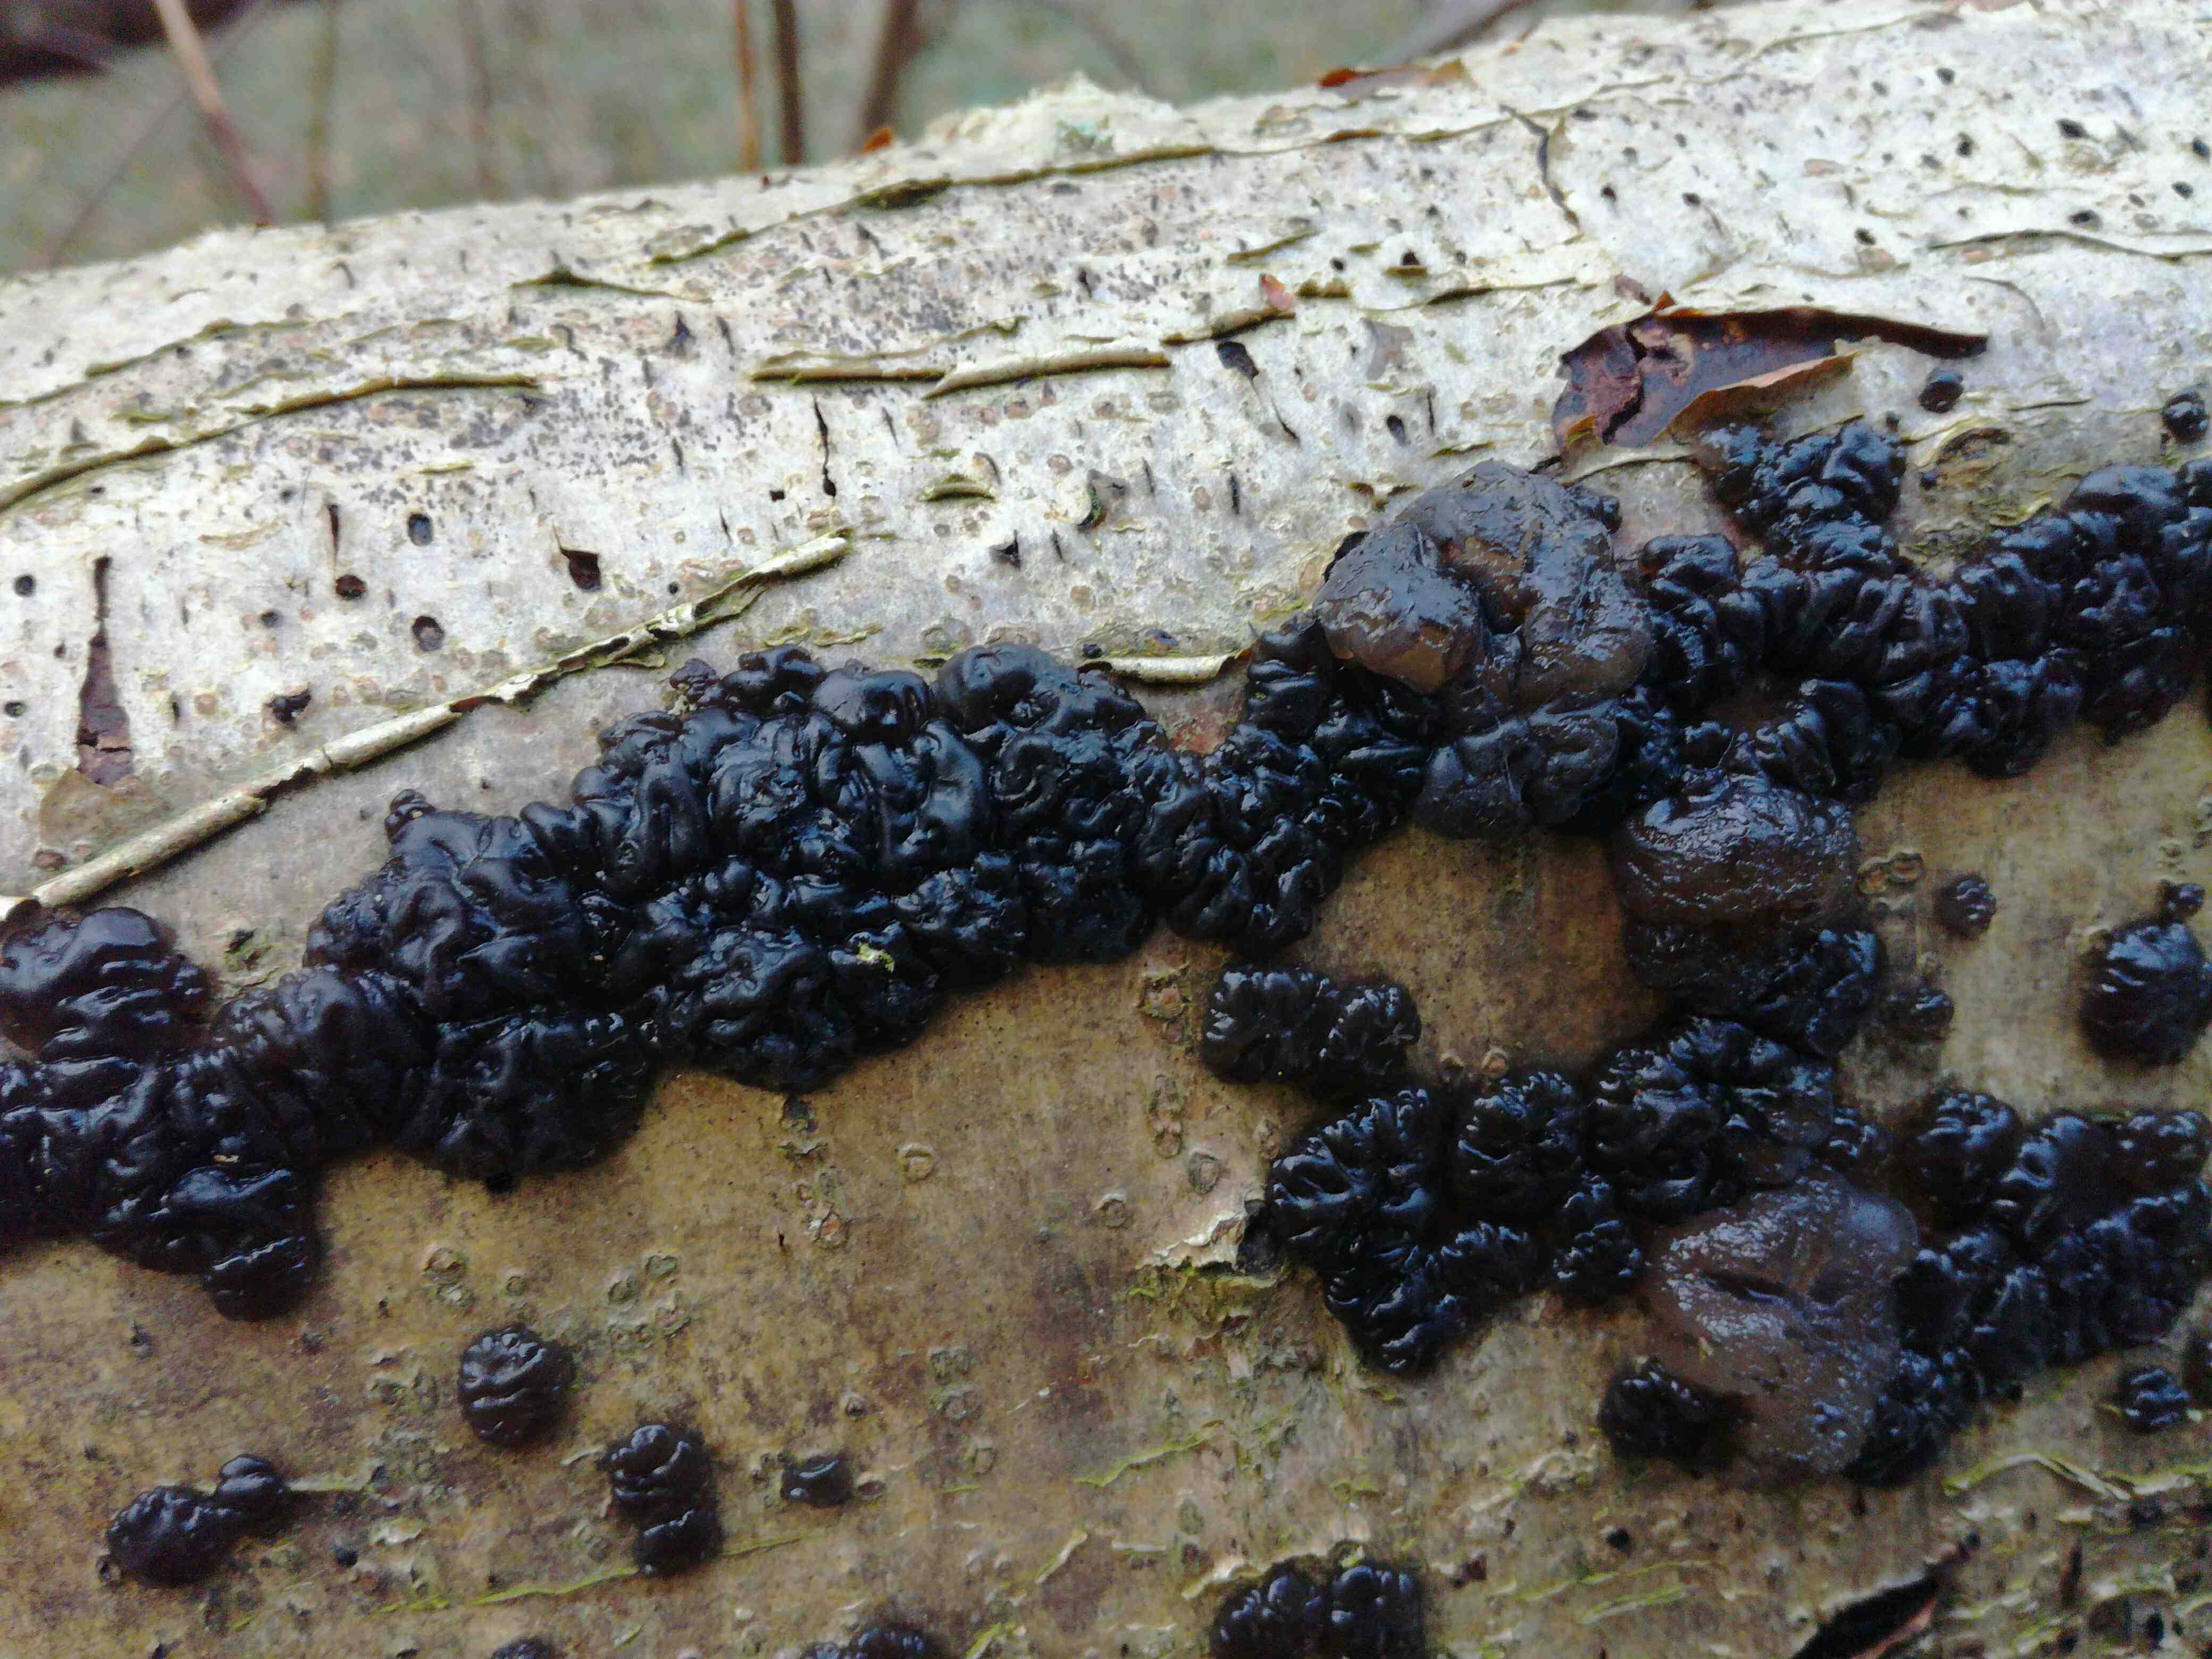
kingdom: Fungi
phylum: Basidiomycota
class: Agaricomycetes
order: Auriculariales
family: Auriculariaceae
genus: Exidia
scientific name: Exidia nigricans
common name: almindelig bævretop
